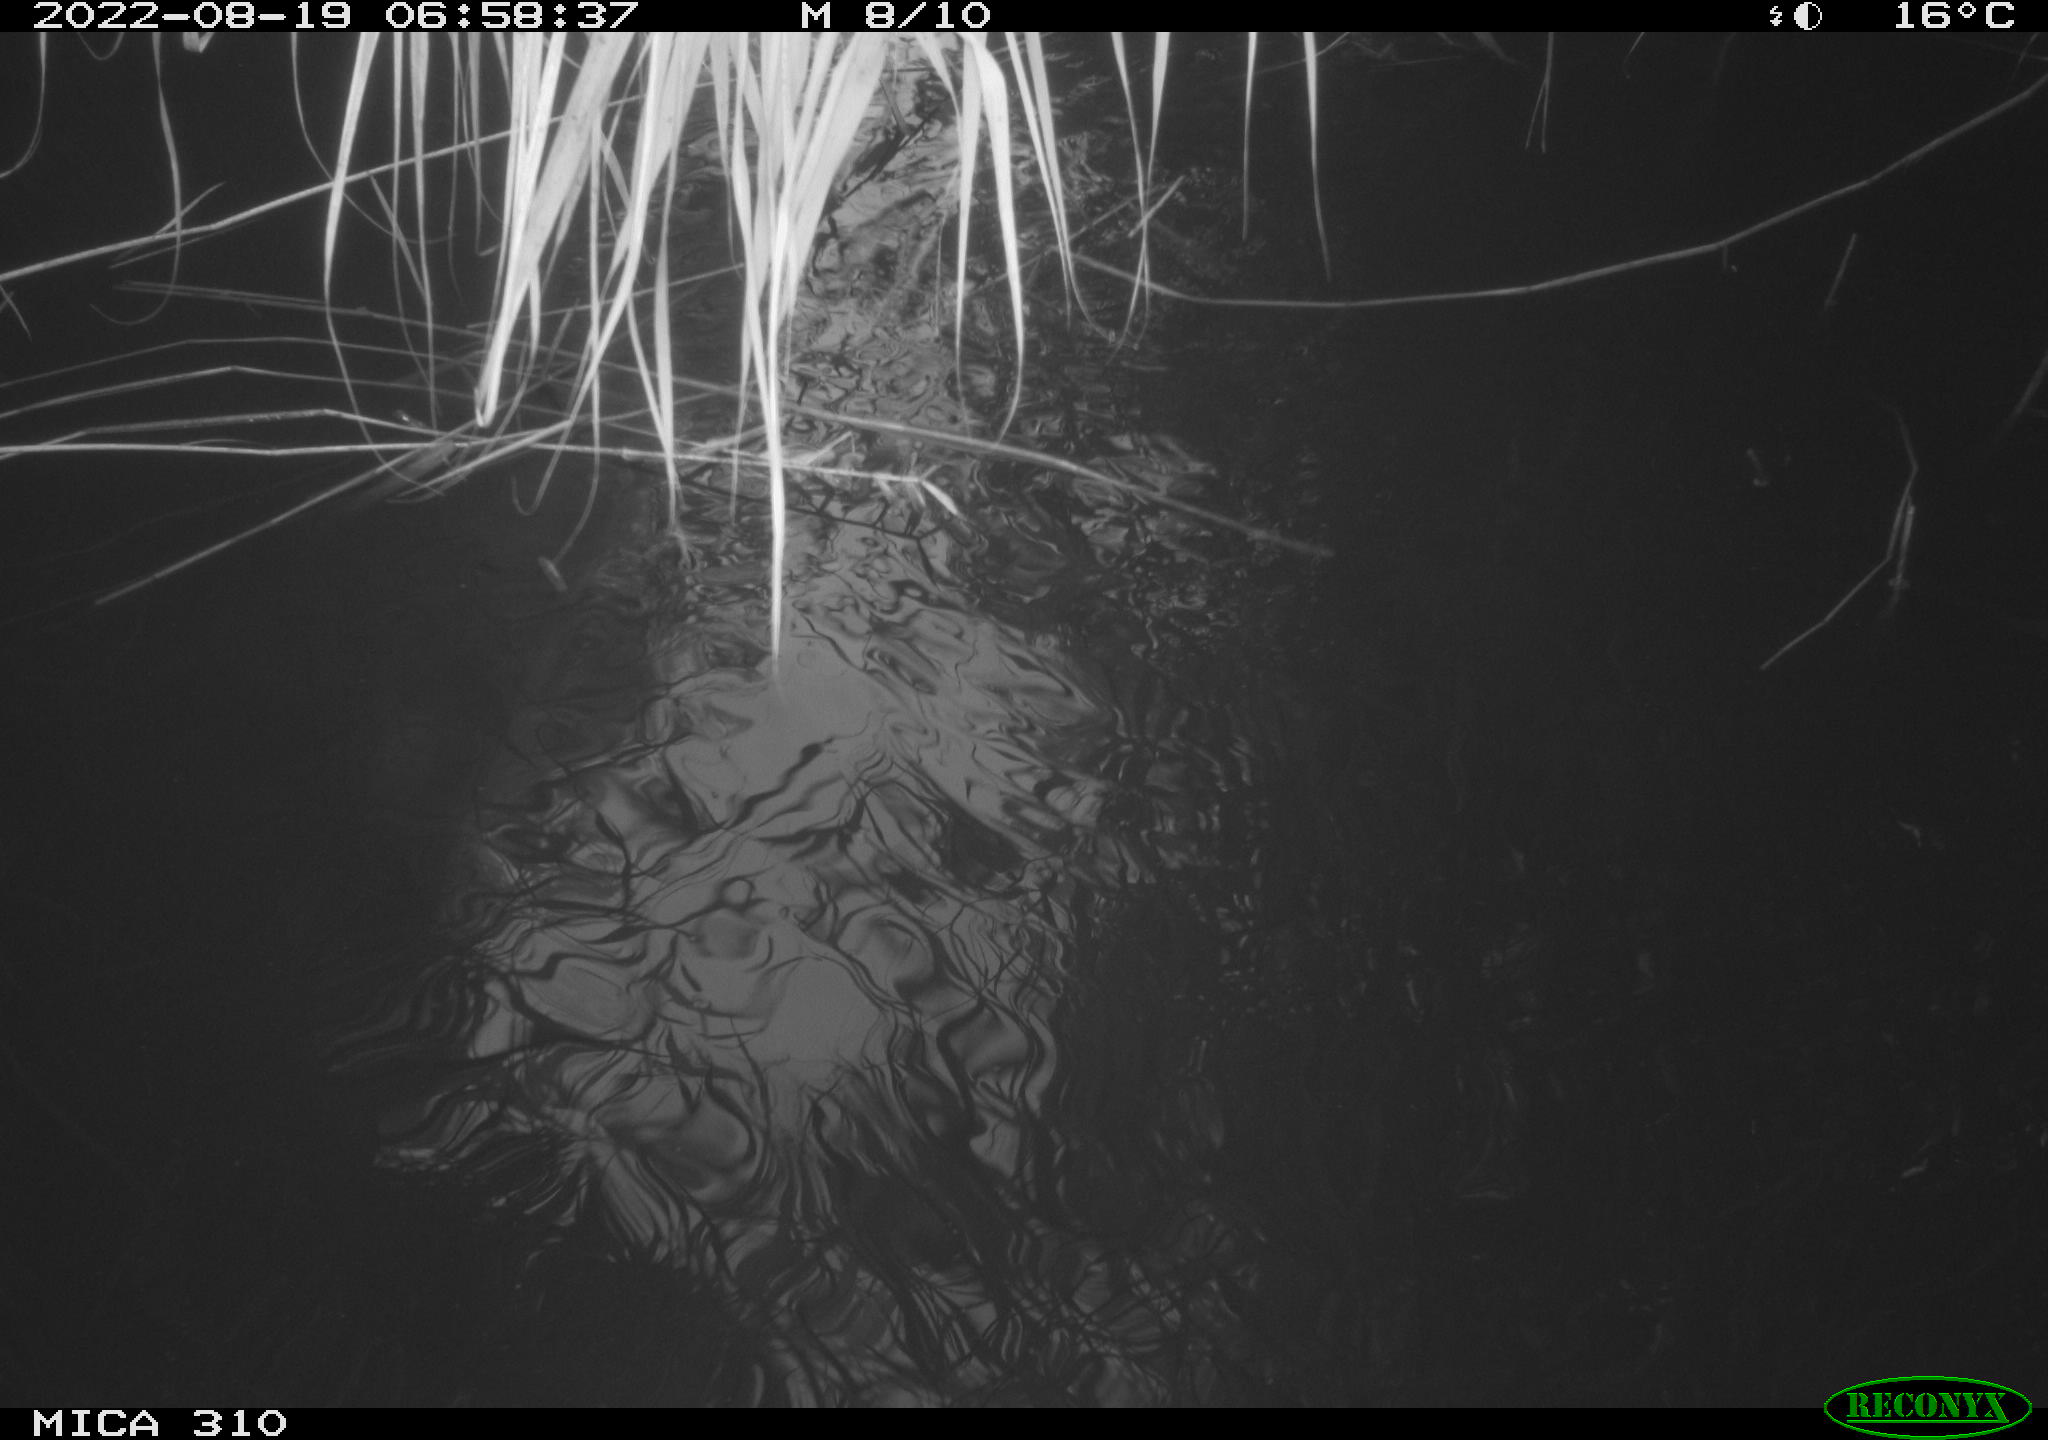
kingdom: Animalia
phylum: Chordata
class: Aves
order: Anseriformes
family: Anatidae
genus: Anas
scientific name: Anas platyrhynchos
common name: Mallard
